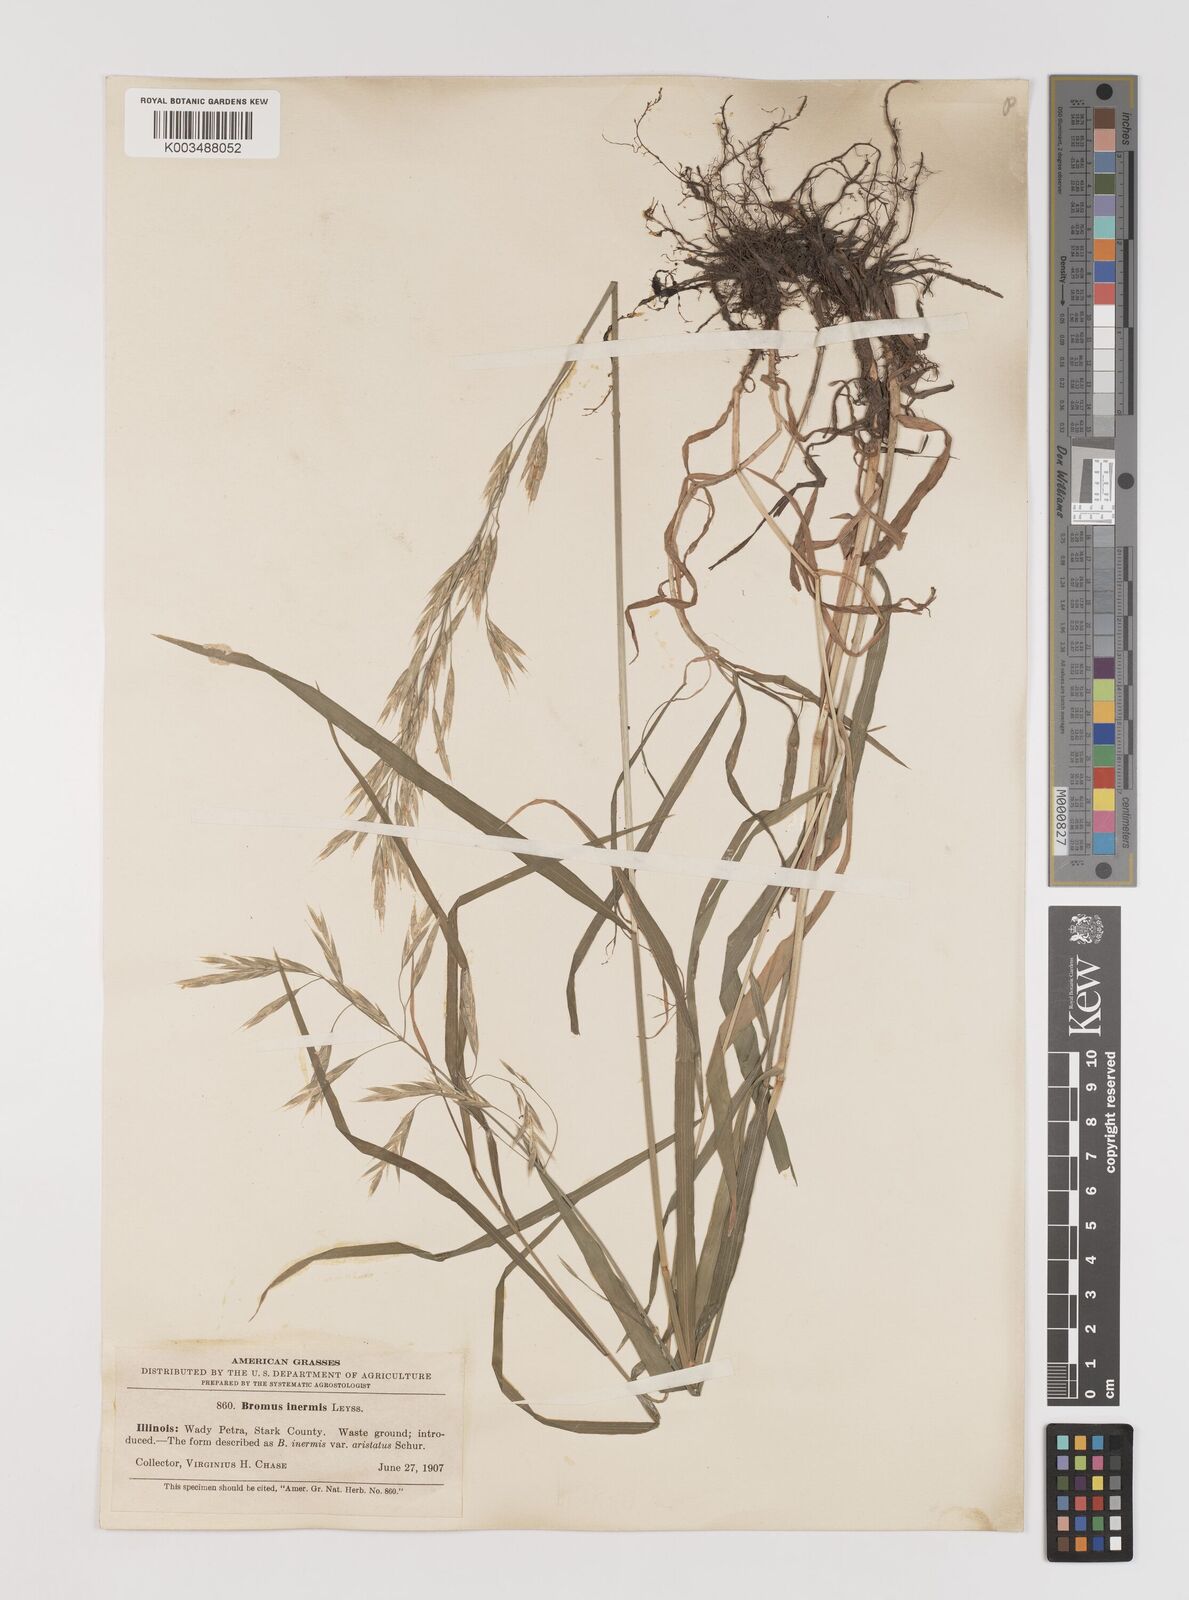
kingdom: Plantae
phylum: Tracheophyta
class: Liliopsida
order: Poales
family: Poaceae
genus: Bromus
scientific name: Bromus inermis
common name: Smooth brome
